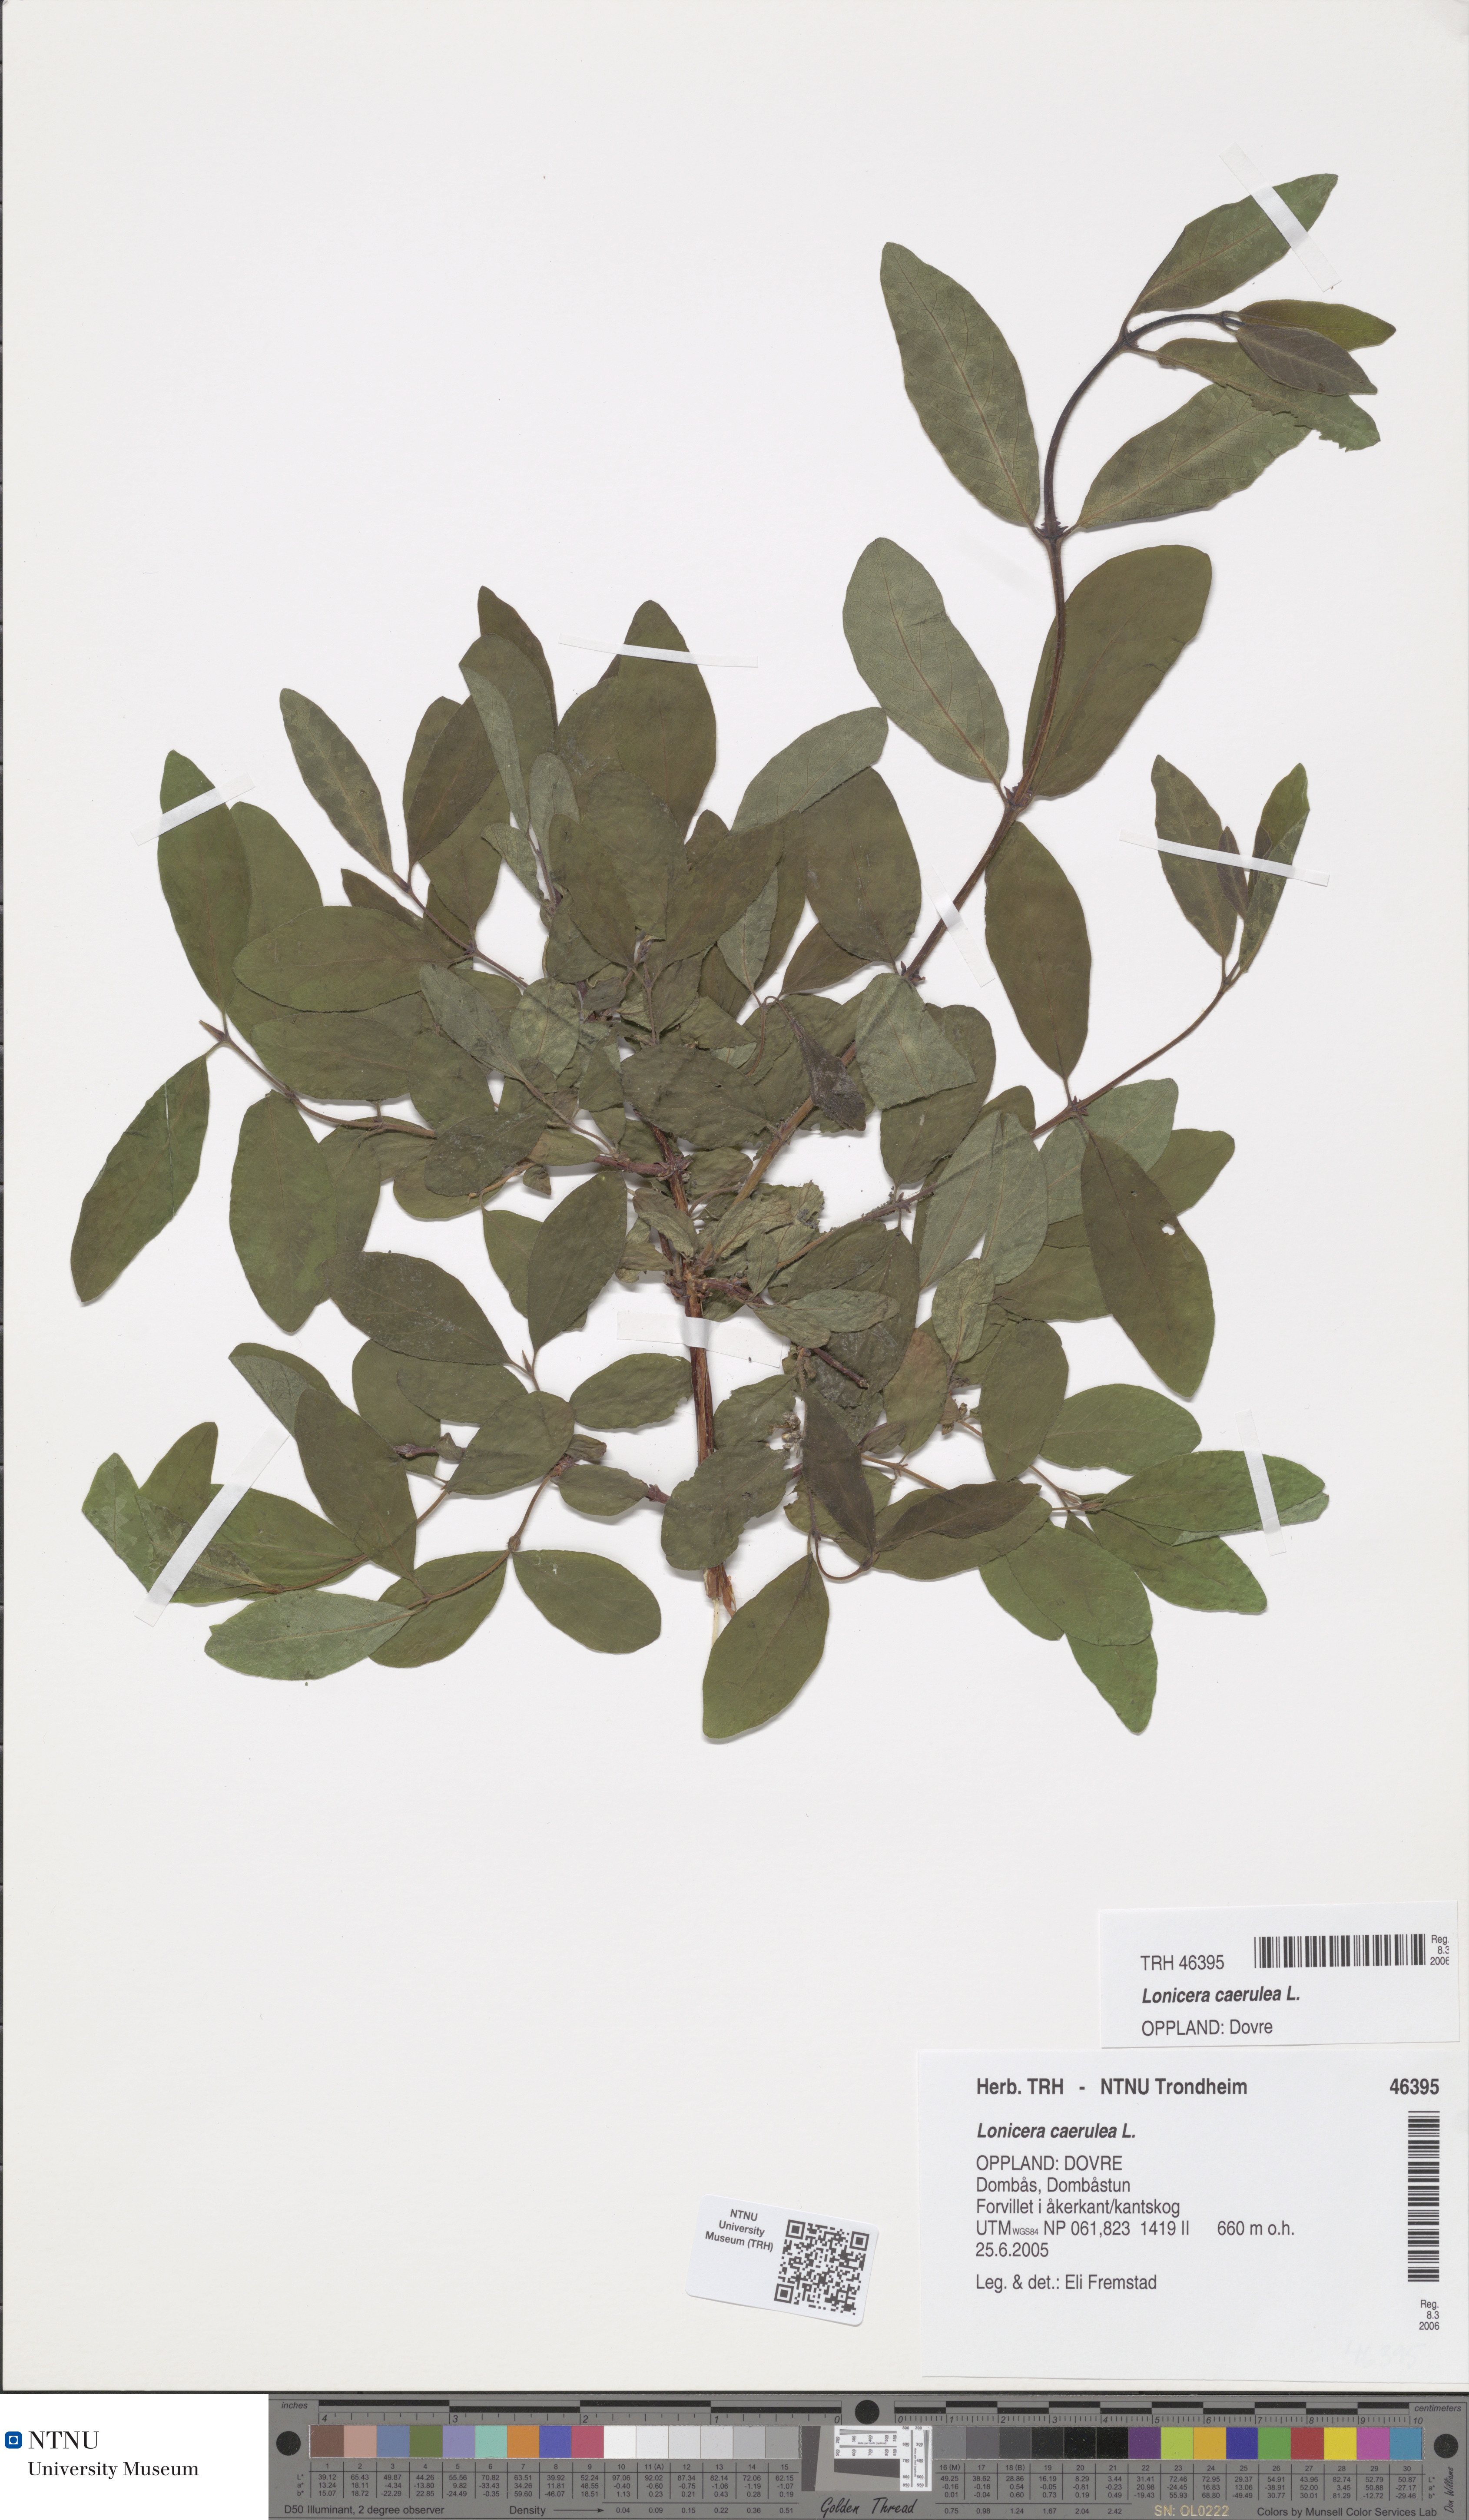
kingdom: Plantae
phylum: Tracheophyta
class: Magnoliopsida
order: Dipsacales
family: Caprifoliaceae
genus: Lonicera
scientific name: Lonicera caerulea
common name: Blue honeysuckle
